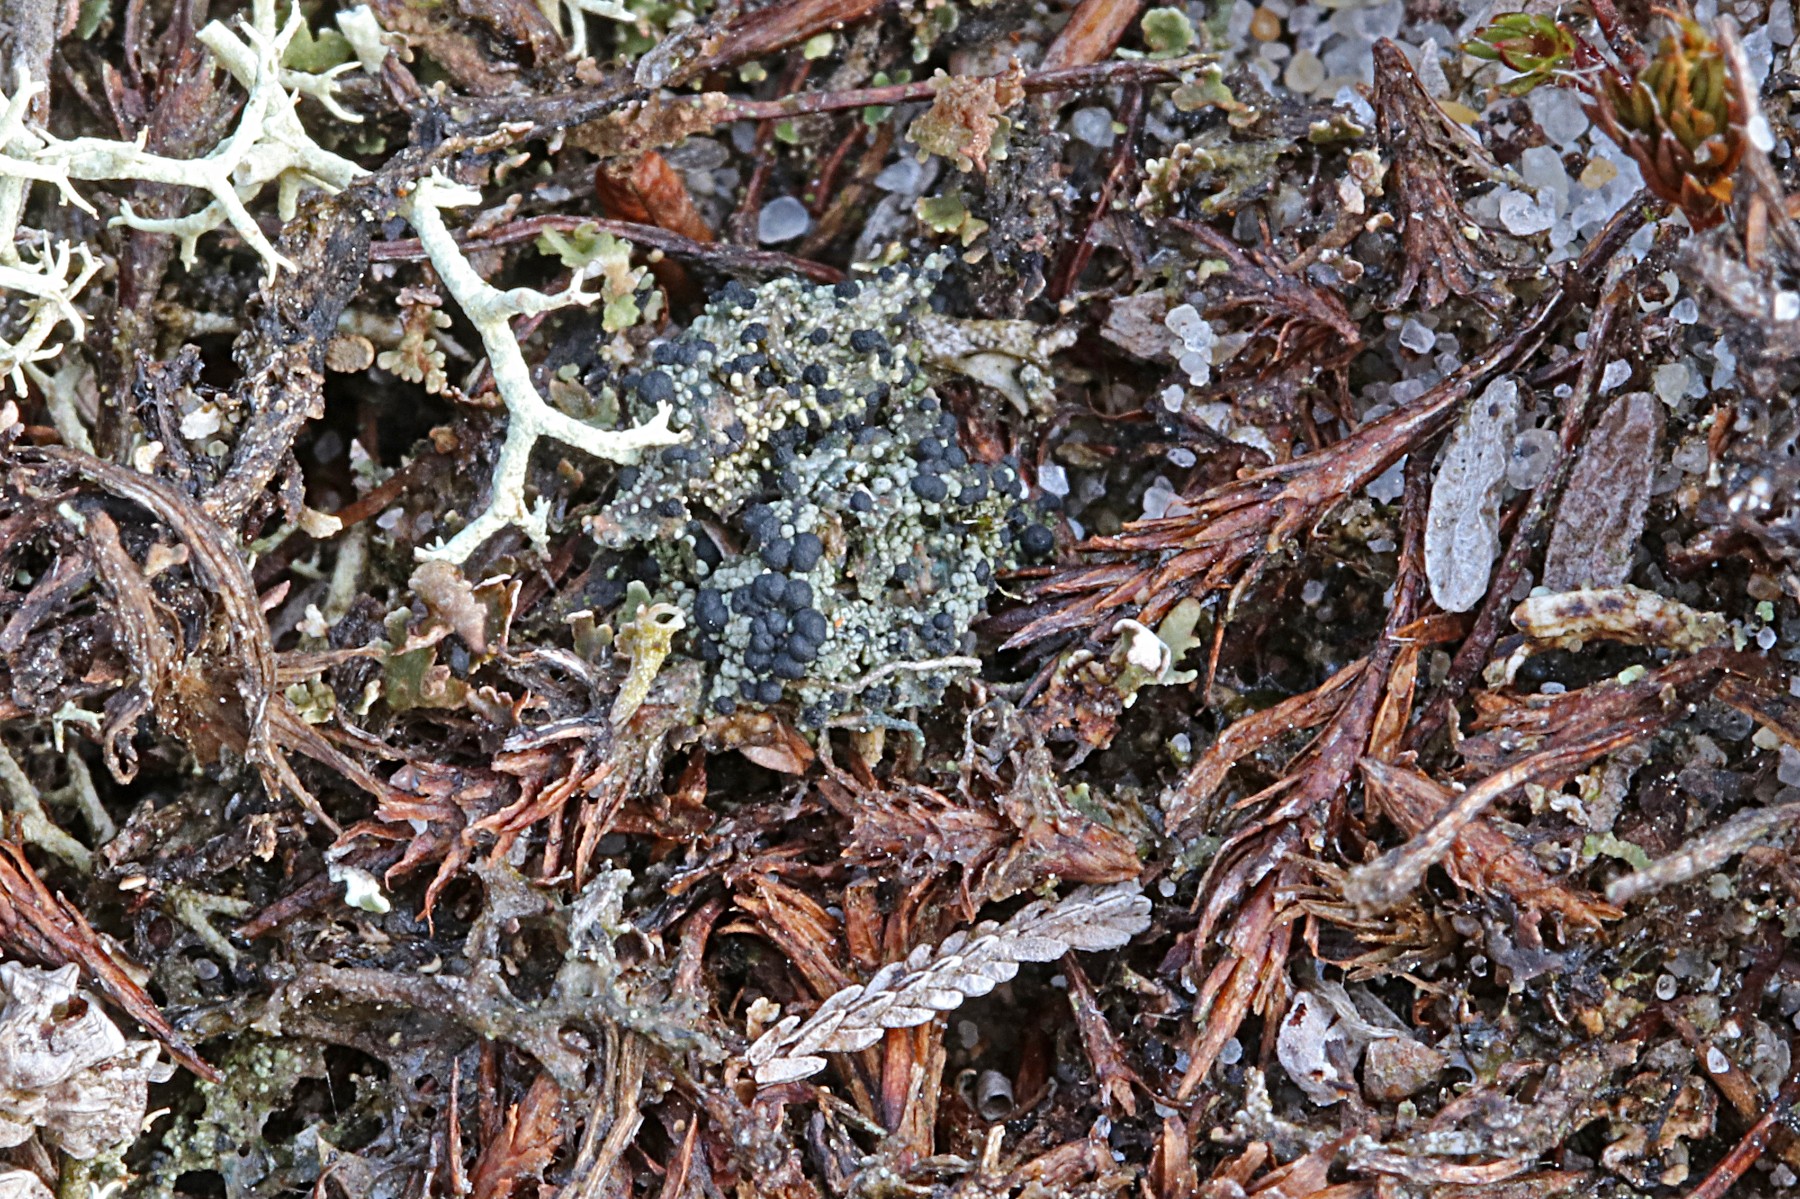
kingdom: Fungi
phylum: Ascomycota
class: Lecanoromycetes
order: Lecanorales
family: Byssolomataceae
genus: Micarea
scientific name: Micarea lignaria
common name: tørve-knaplav
